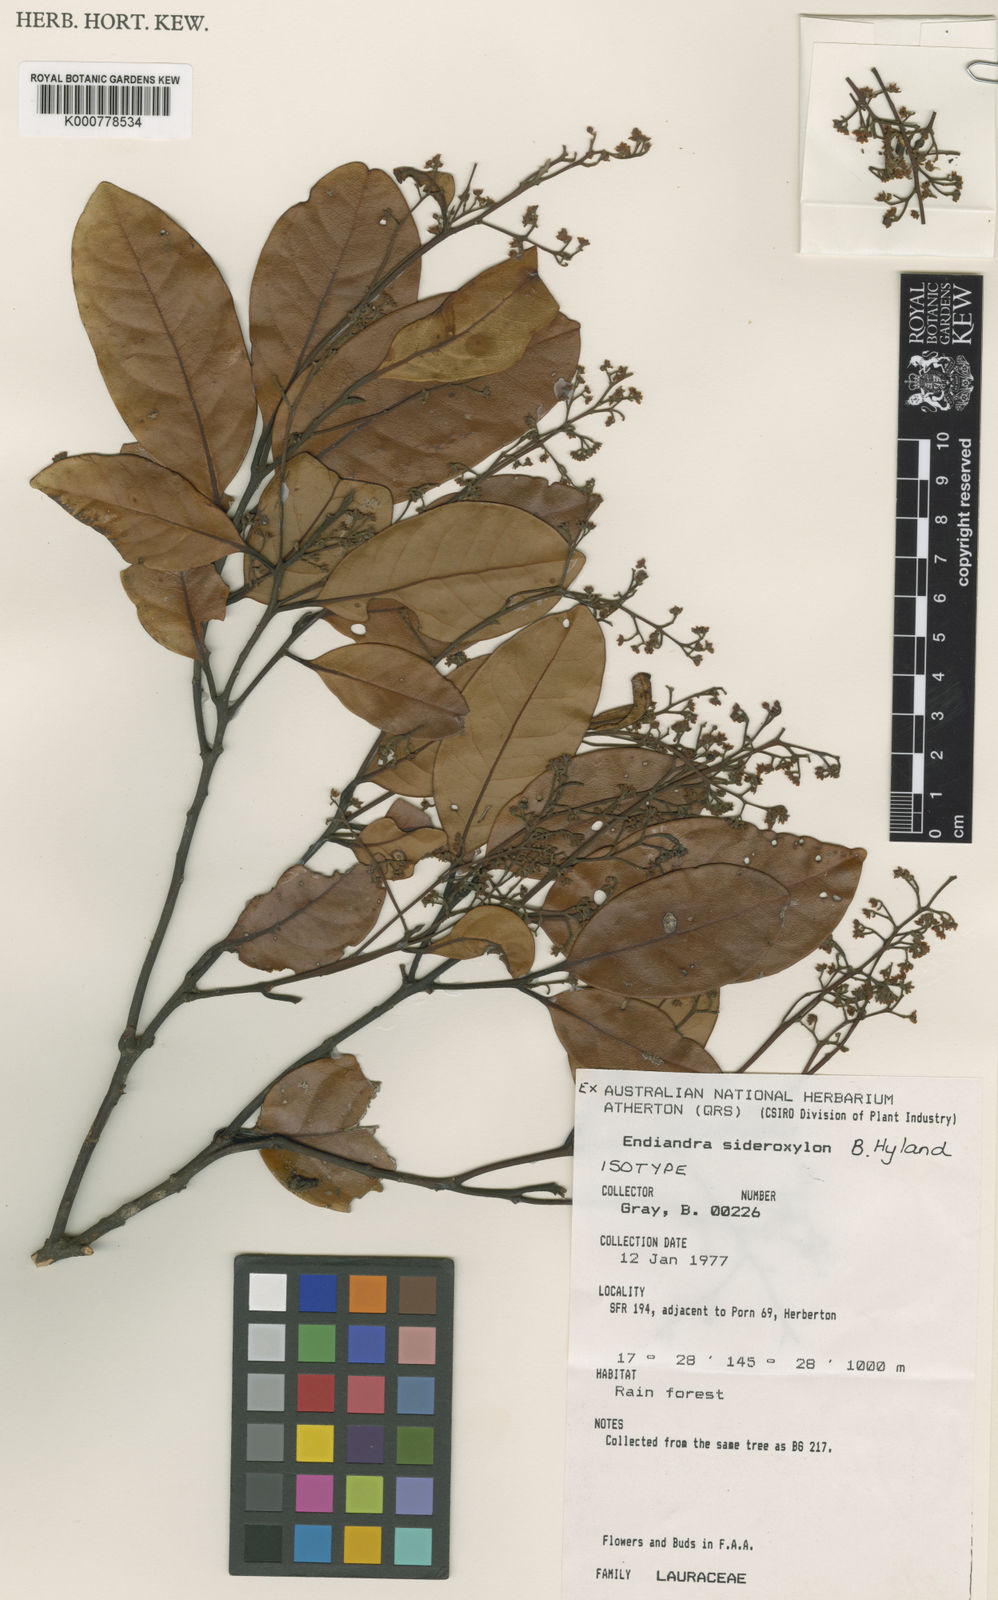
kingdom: Plantae
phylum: Tracheophyta
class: Magnoliopsida
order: Laurales
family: Lauraceae
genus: Endiandra
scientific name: Endiandra sideroxylon
